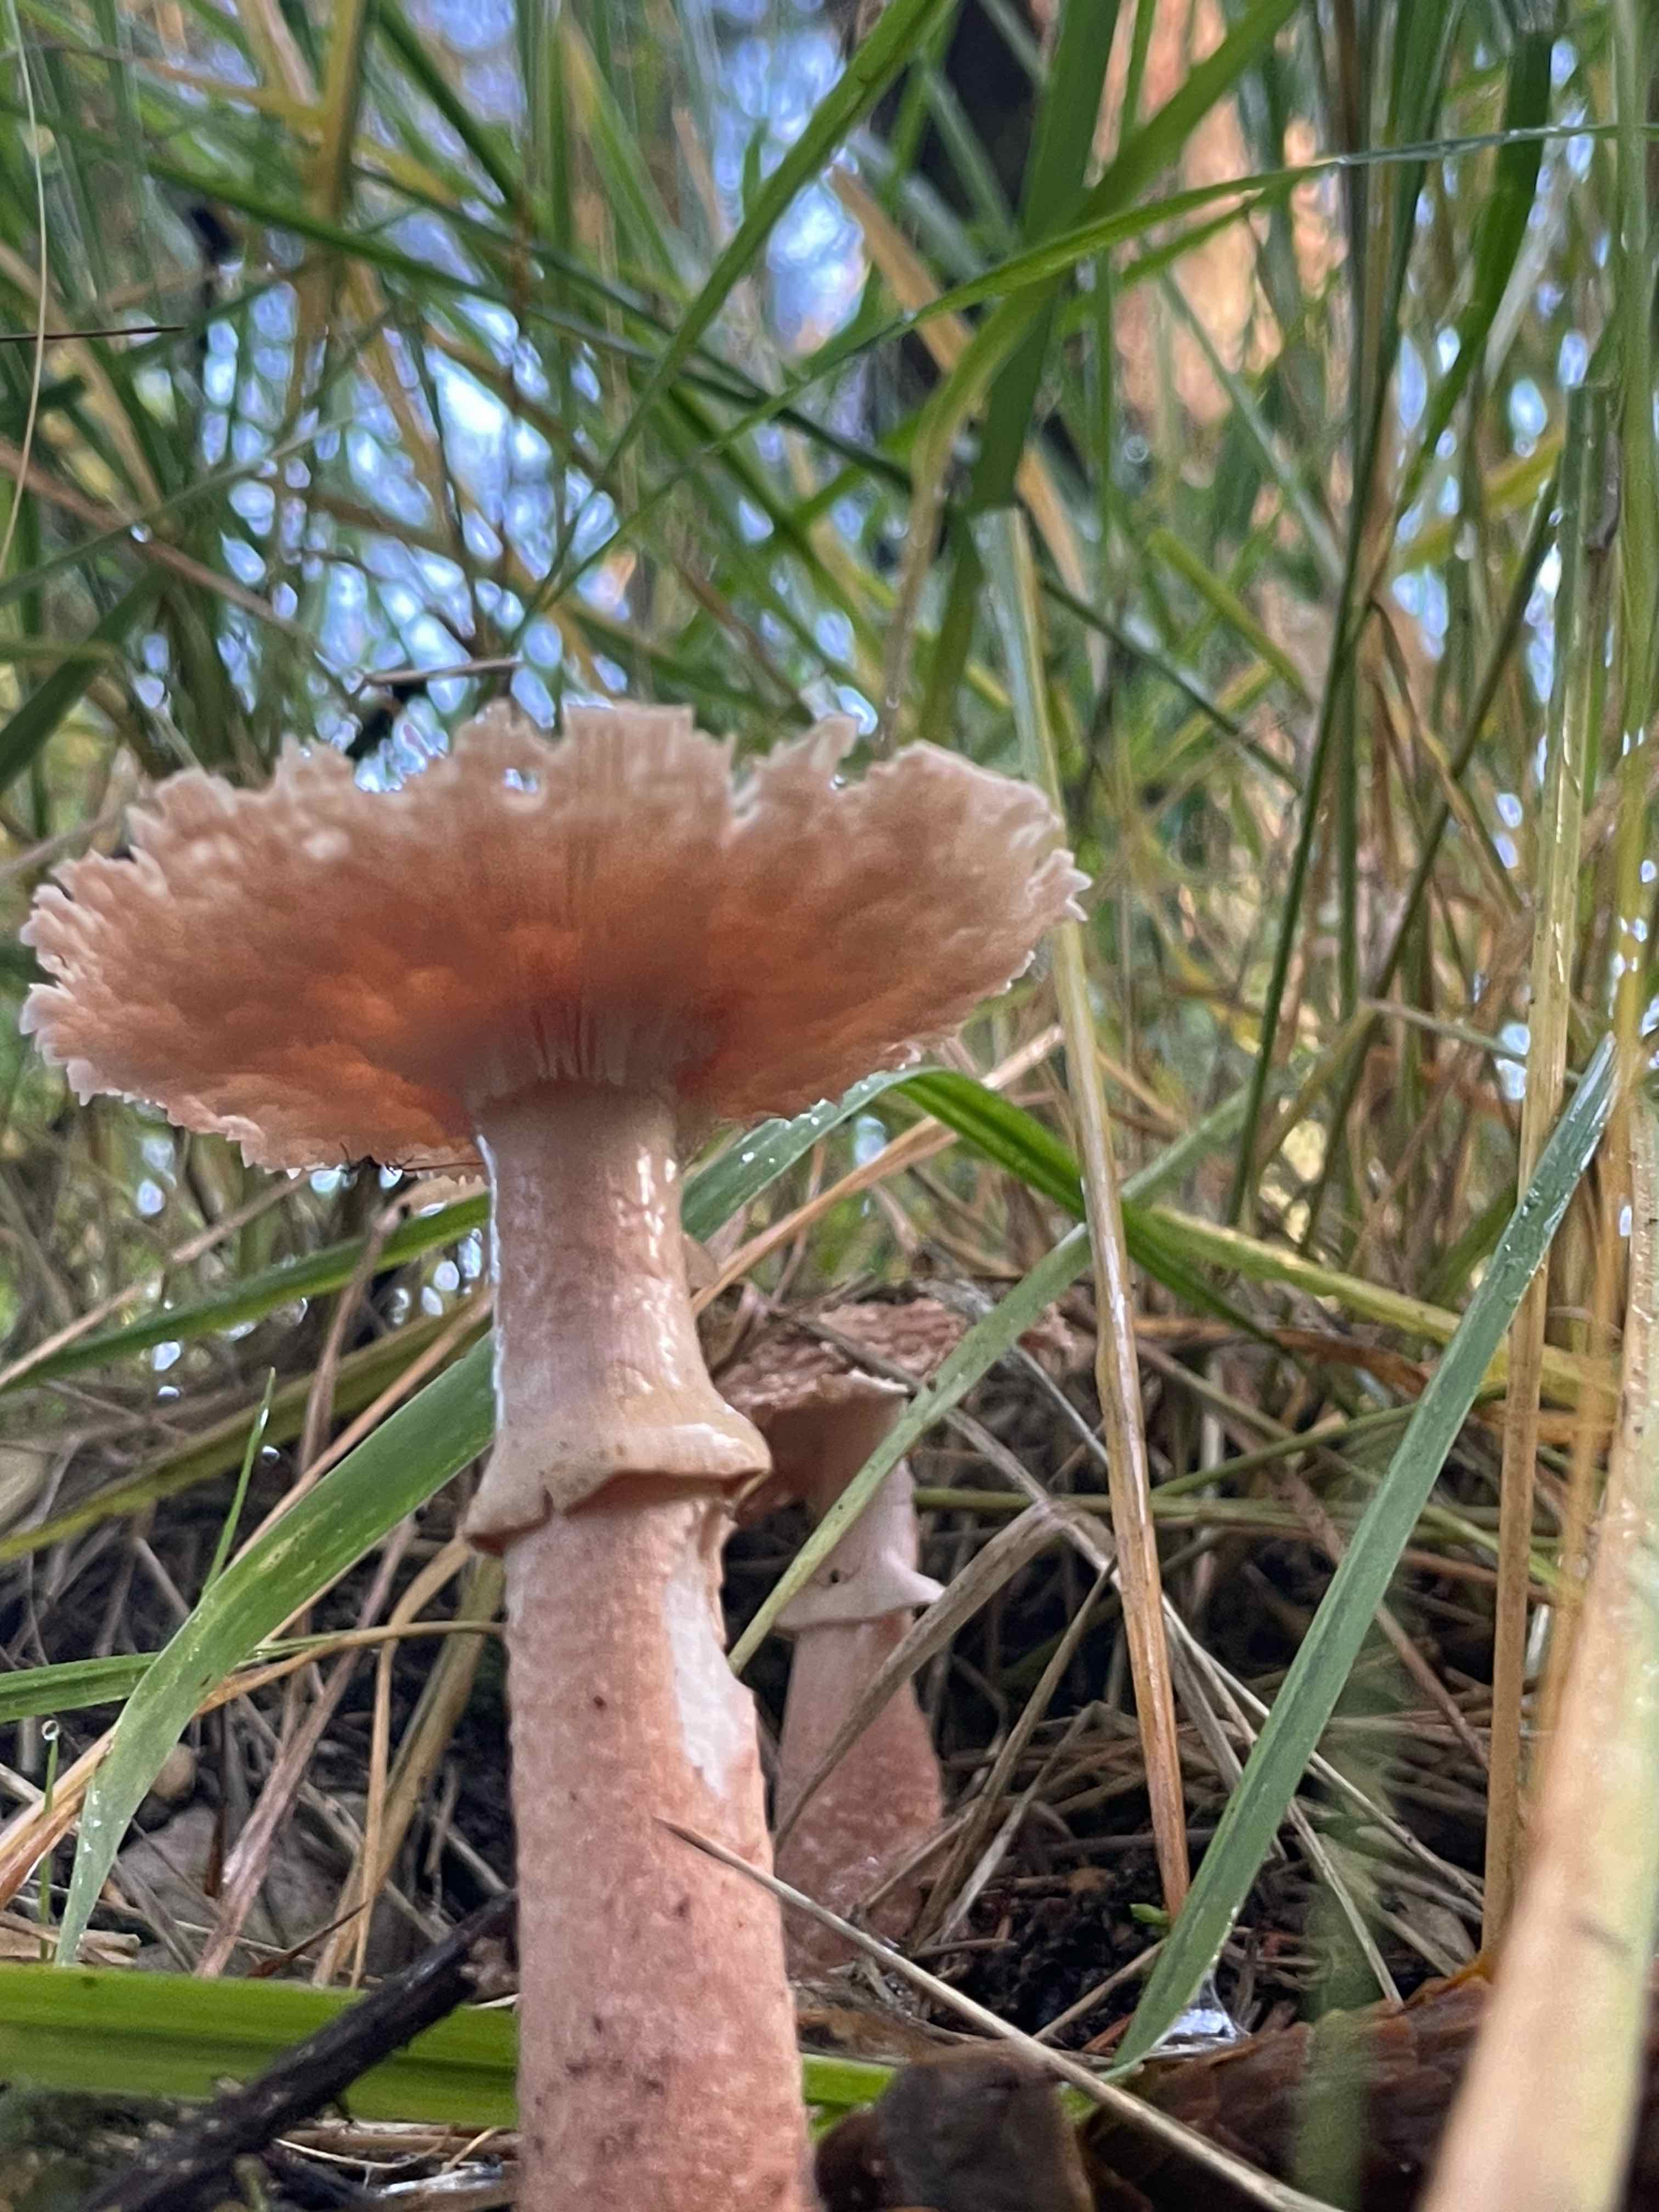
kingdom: Fungi
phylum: Basidiomycota
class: Agaricomycetes
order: Agaricales
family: Amanitaceae
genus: Amanita
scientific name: Amanita rubescens
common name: rødmende fluesvamp
